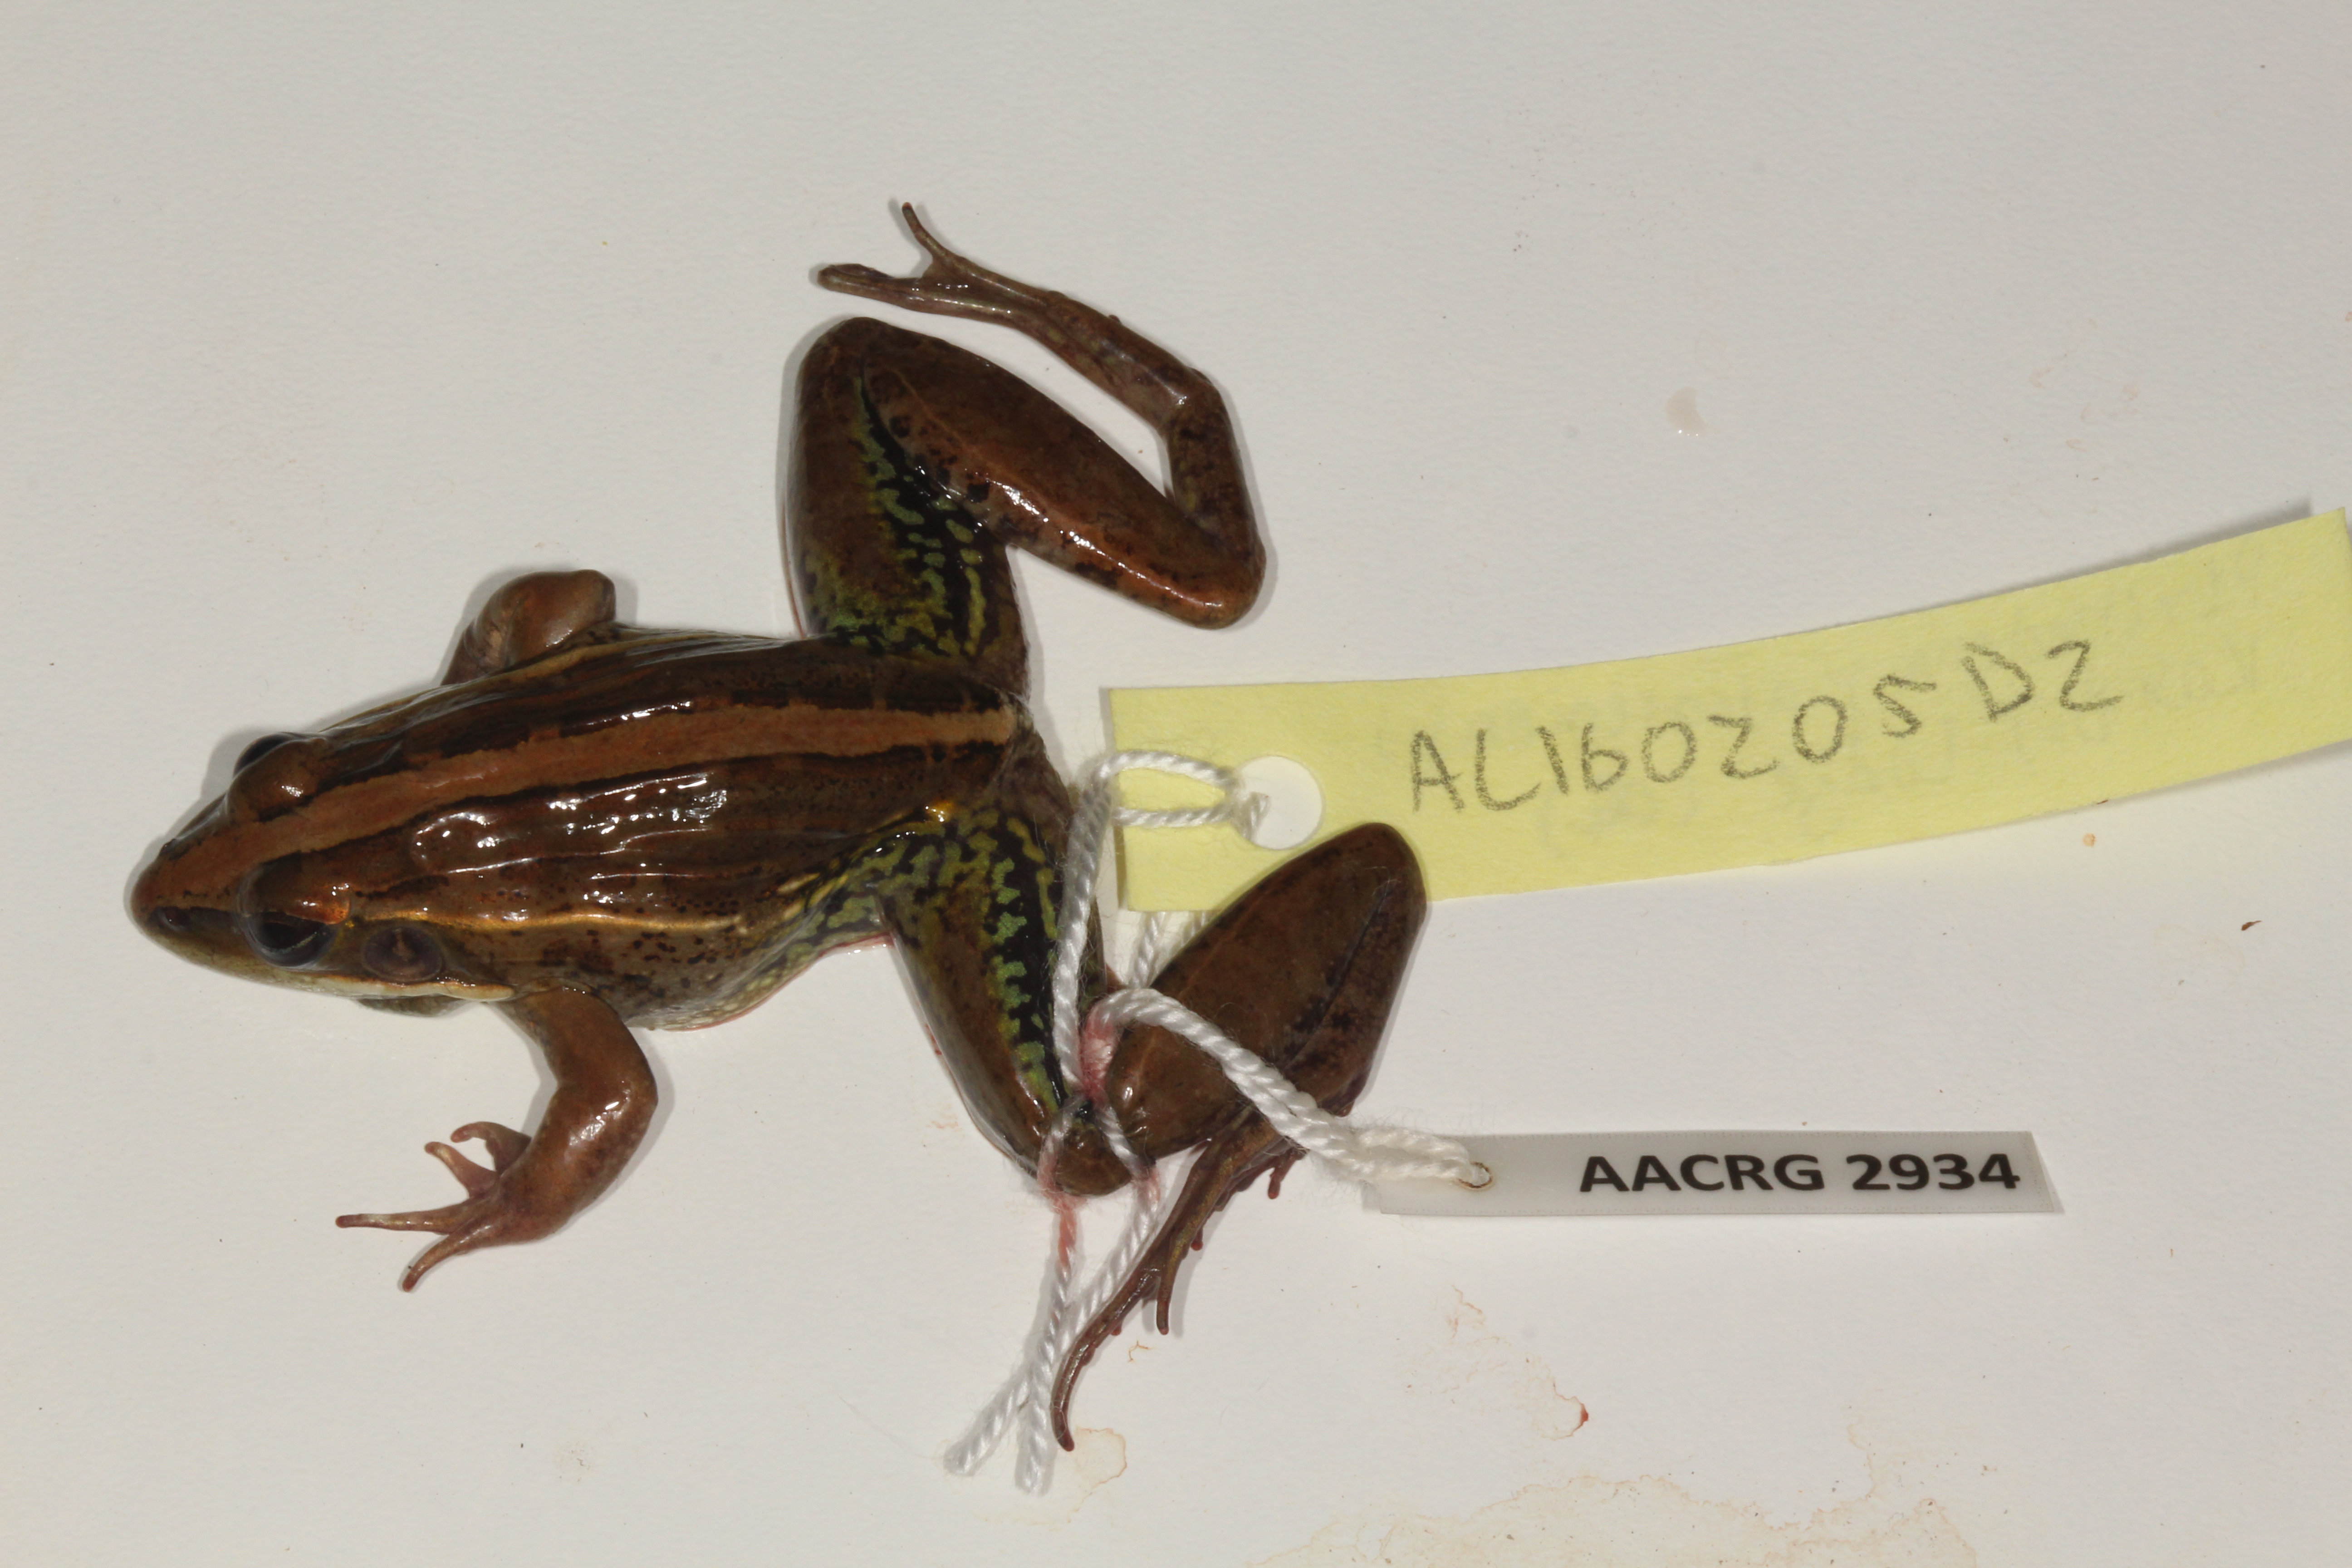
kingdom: Animalia
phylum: Chordata
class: Amphibia
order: Anura
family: Ptychadenidae
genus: Ptychadena
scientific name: Ptychadena mascareniensis
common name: Mascarene grass frog
